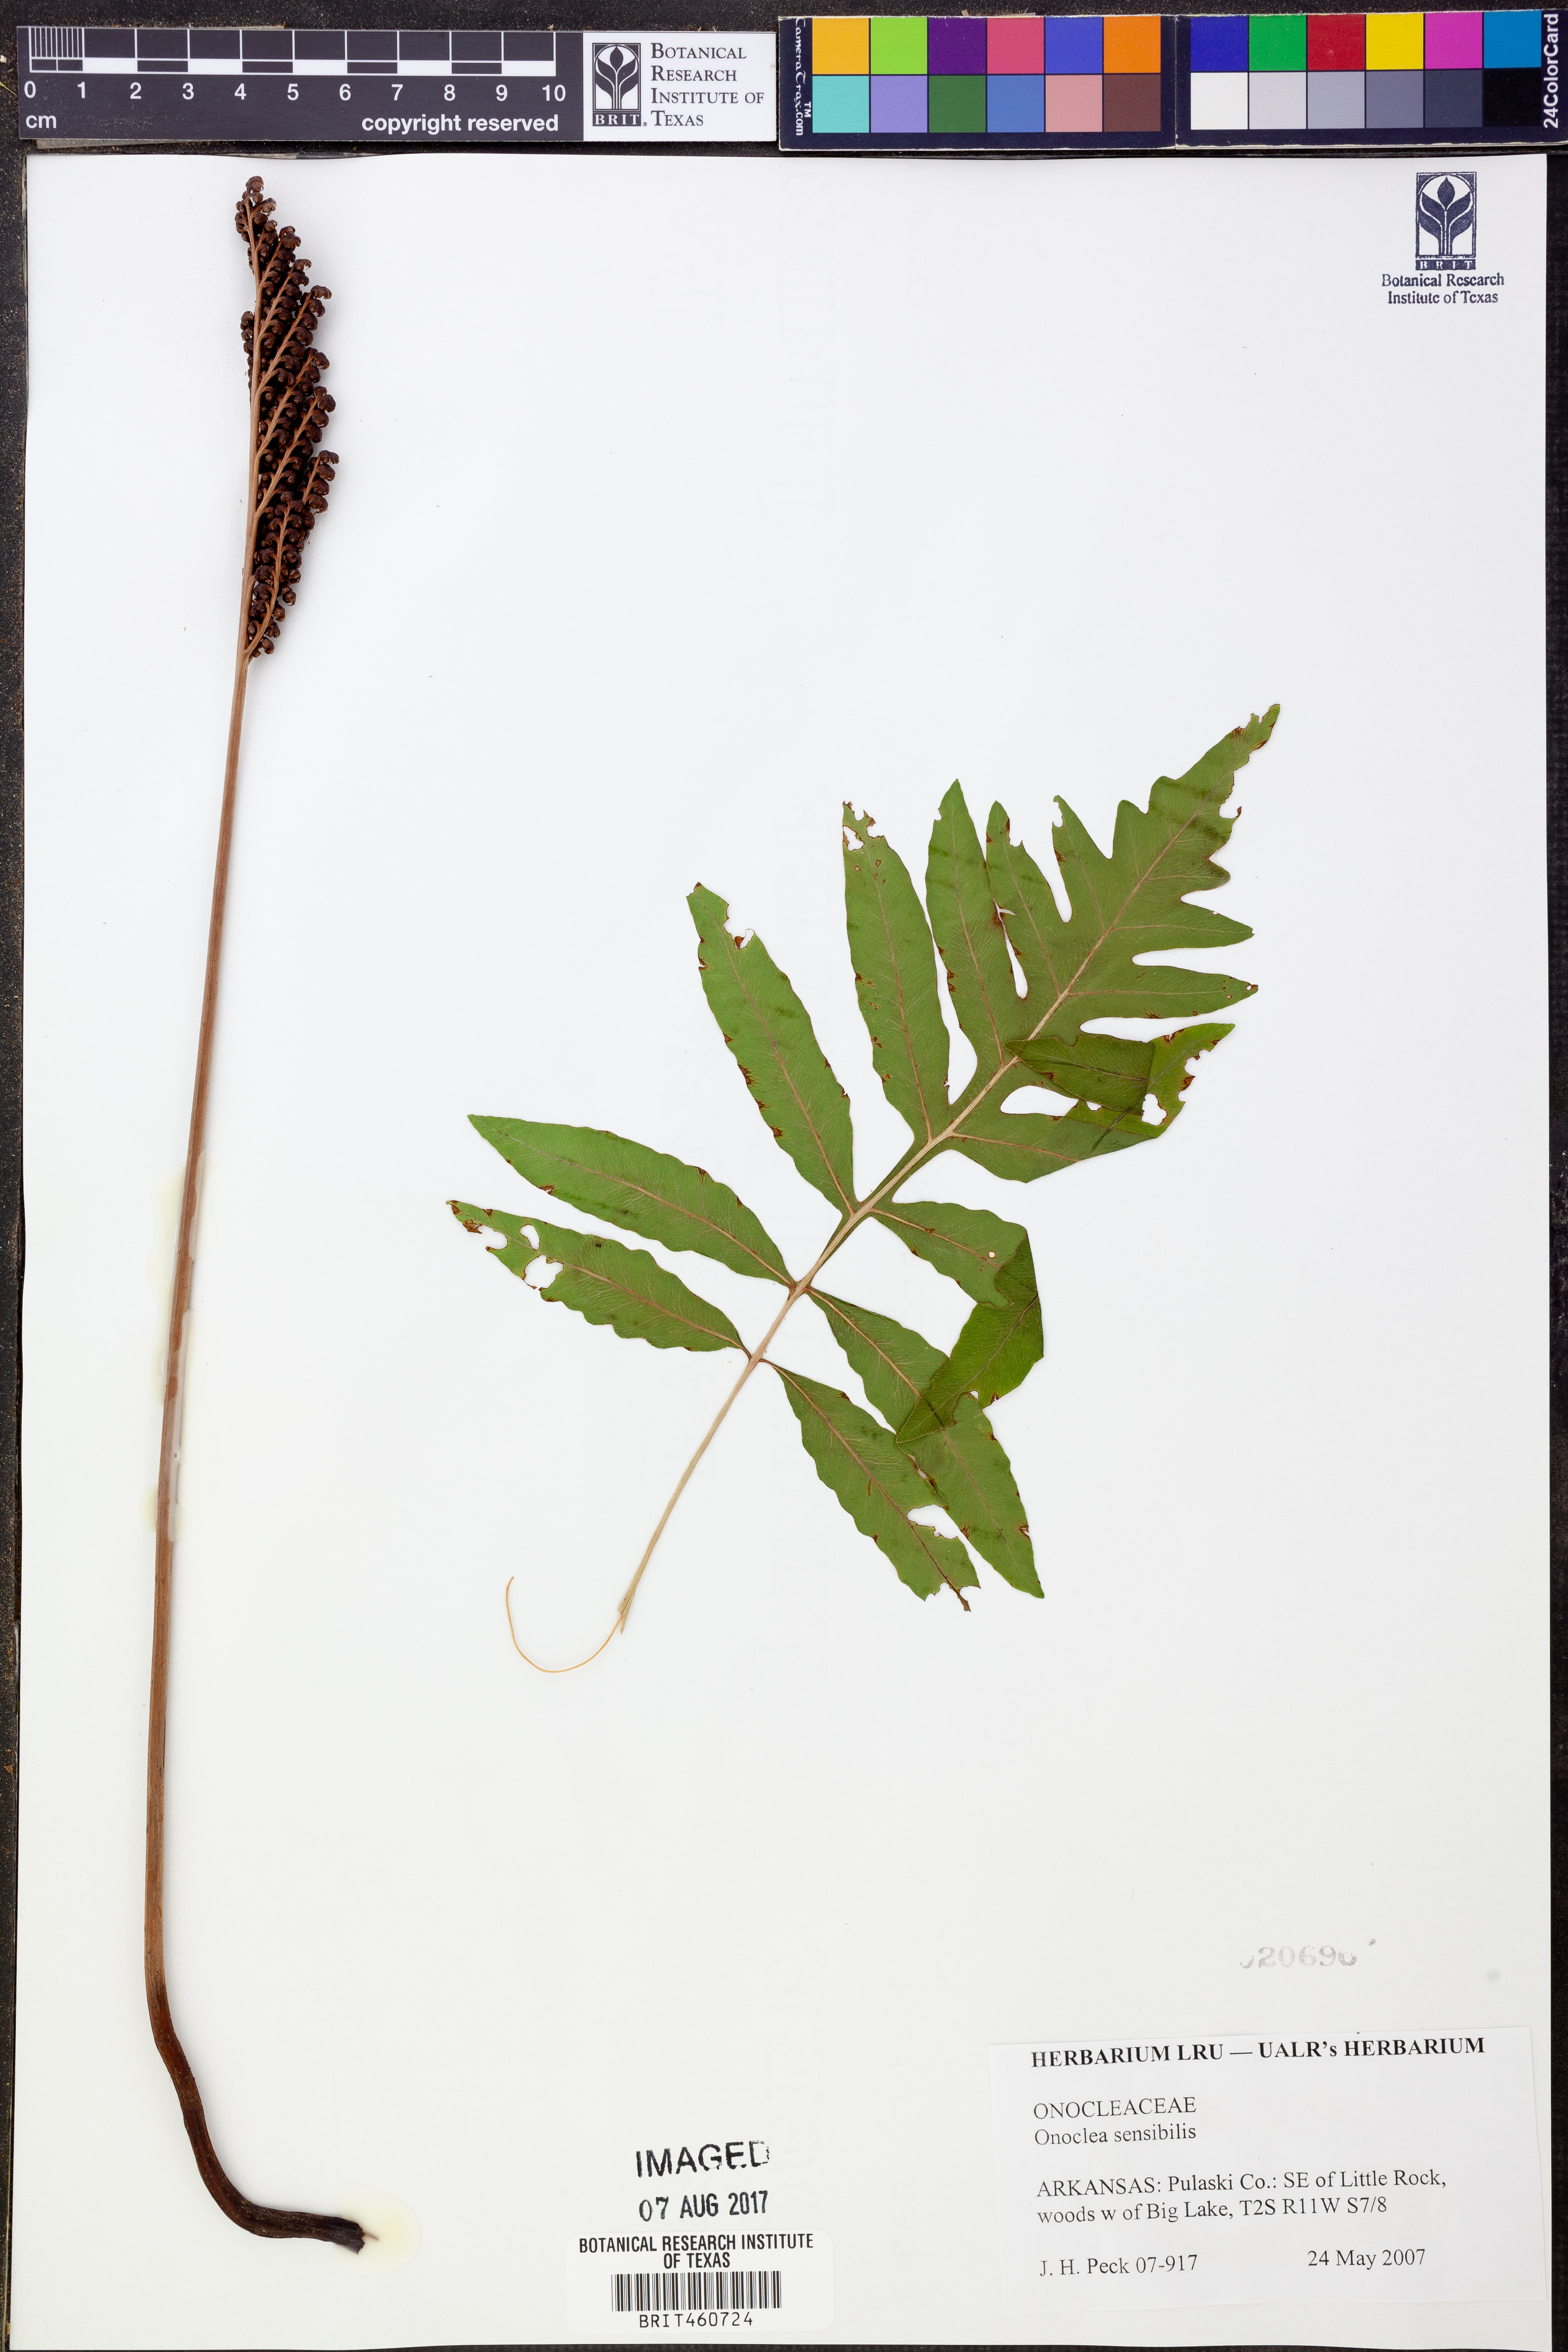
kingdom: Plantae
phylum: Tracheophyta
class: Polypodiopsida
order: Polypodiales
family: Onocleaceae
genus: Onoclea
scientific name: Onoclea sensibilis
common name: Sensitive fern
